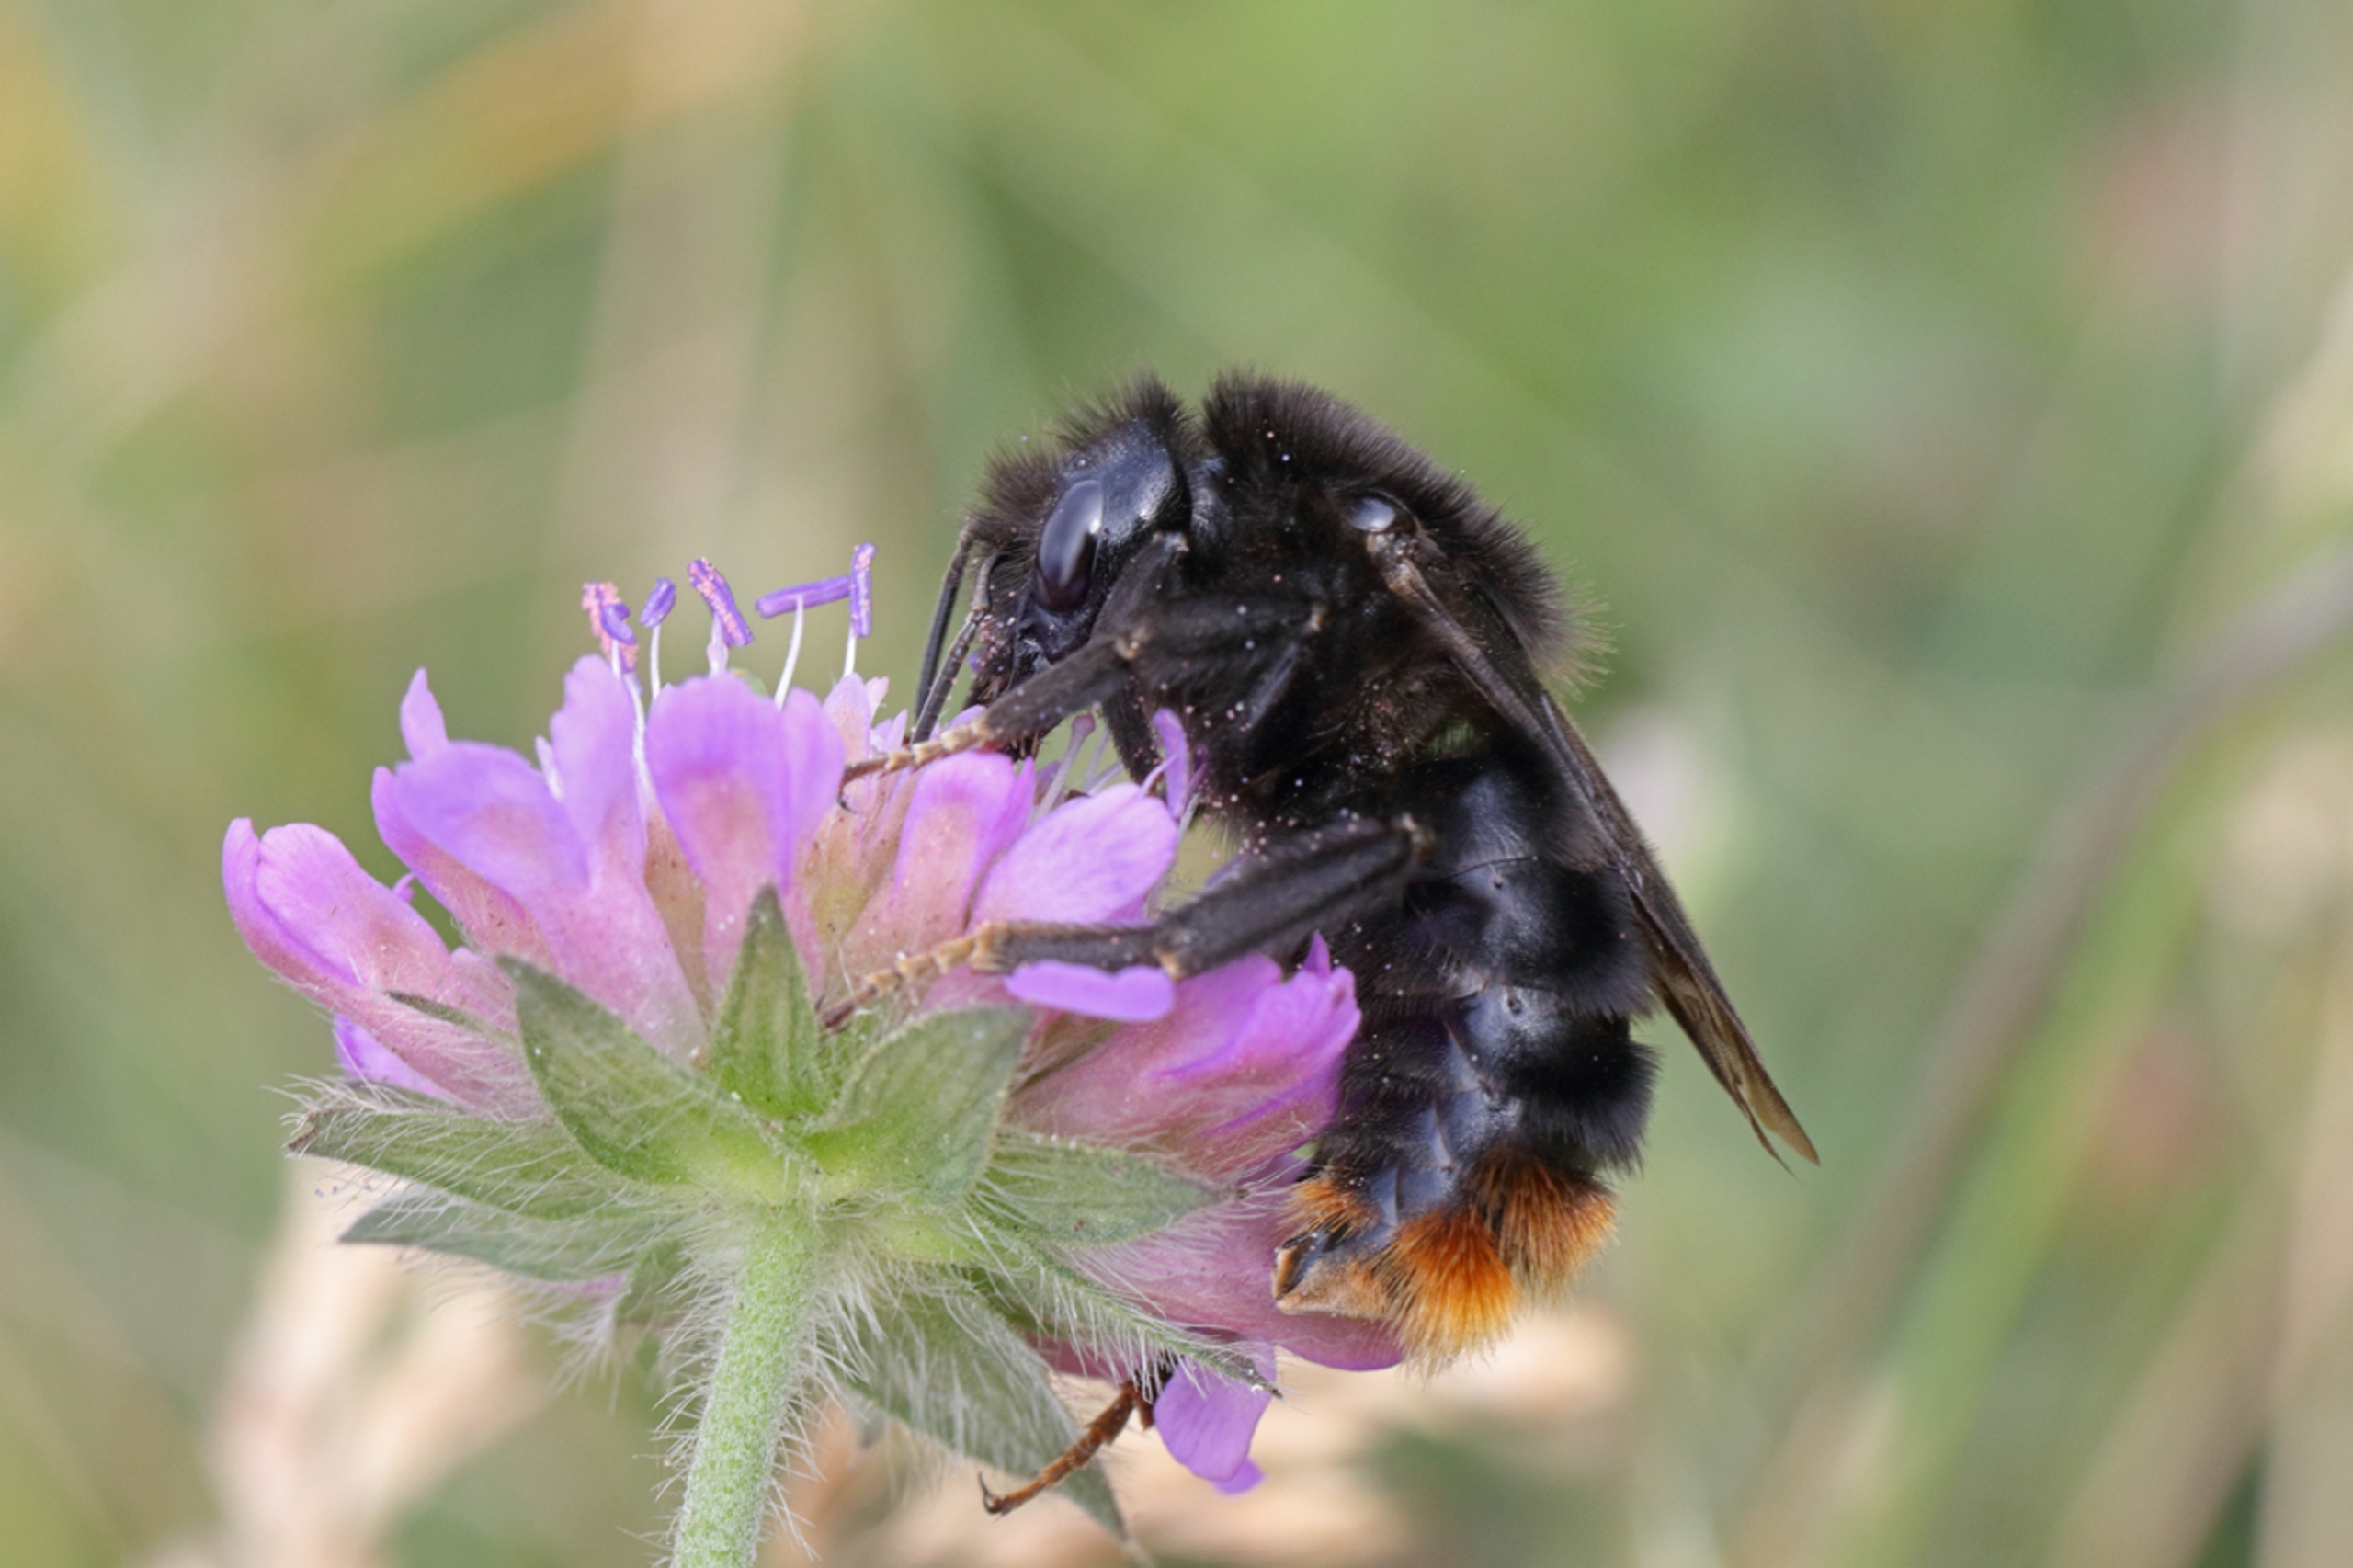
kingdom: Animalia
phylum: Arthropoda
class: Insecta
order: Hymenoptera
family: Apidae
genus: Bombus
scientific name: Bombus rupestris
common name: Stensnyltehumle
